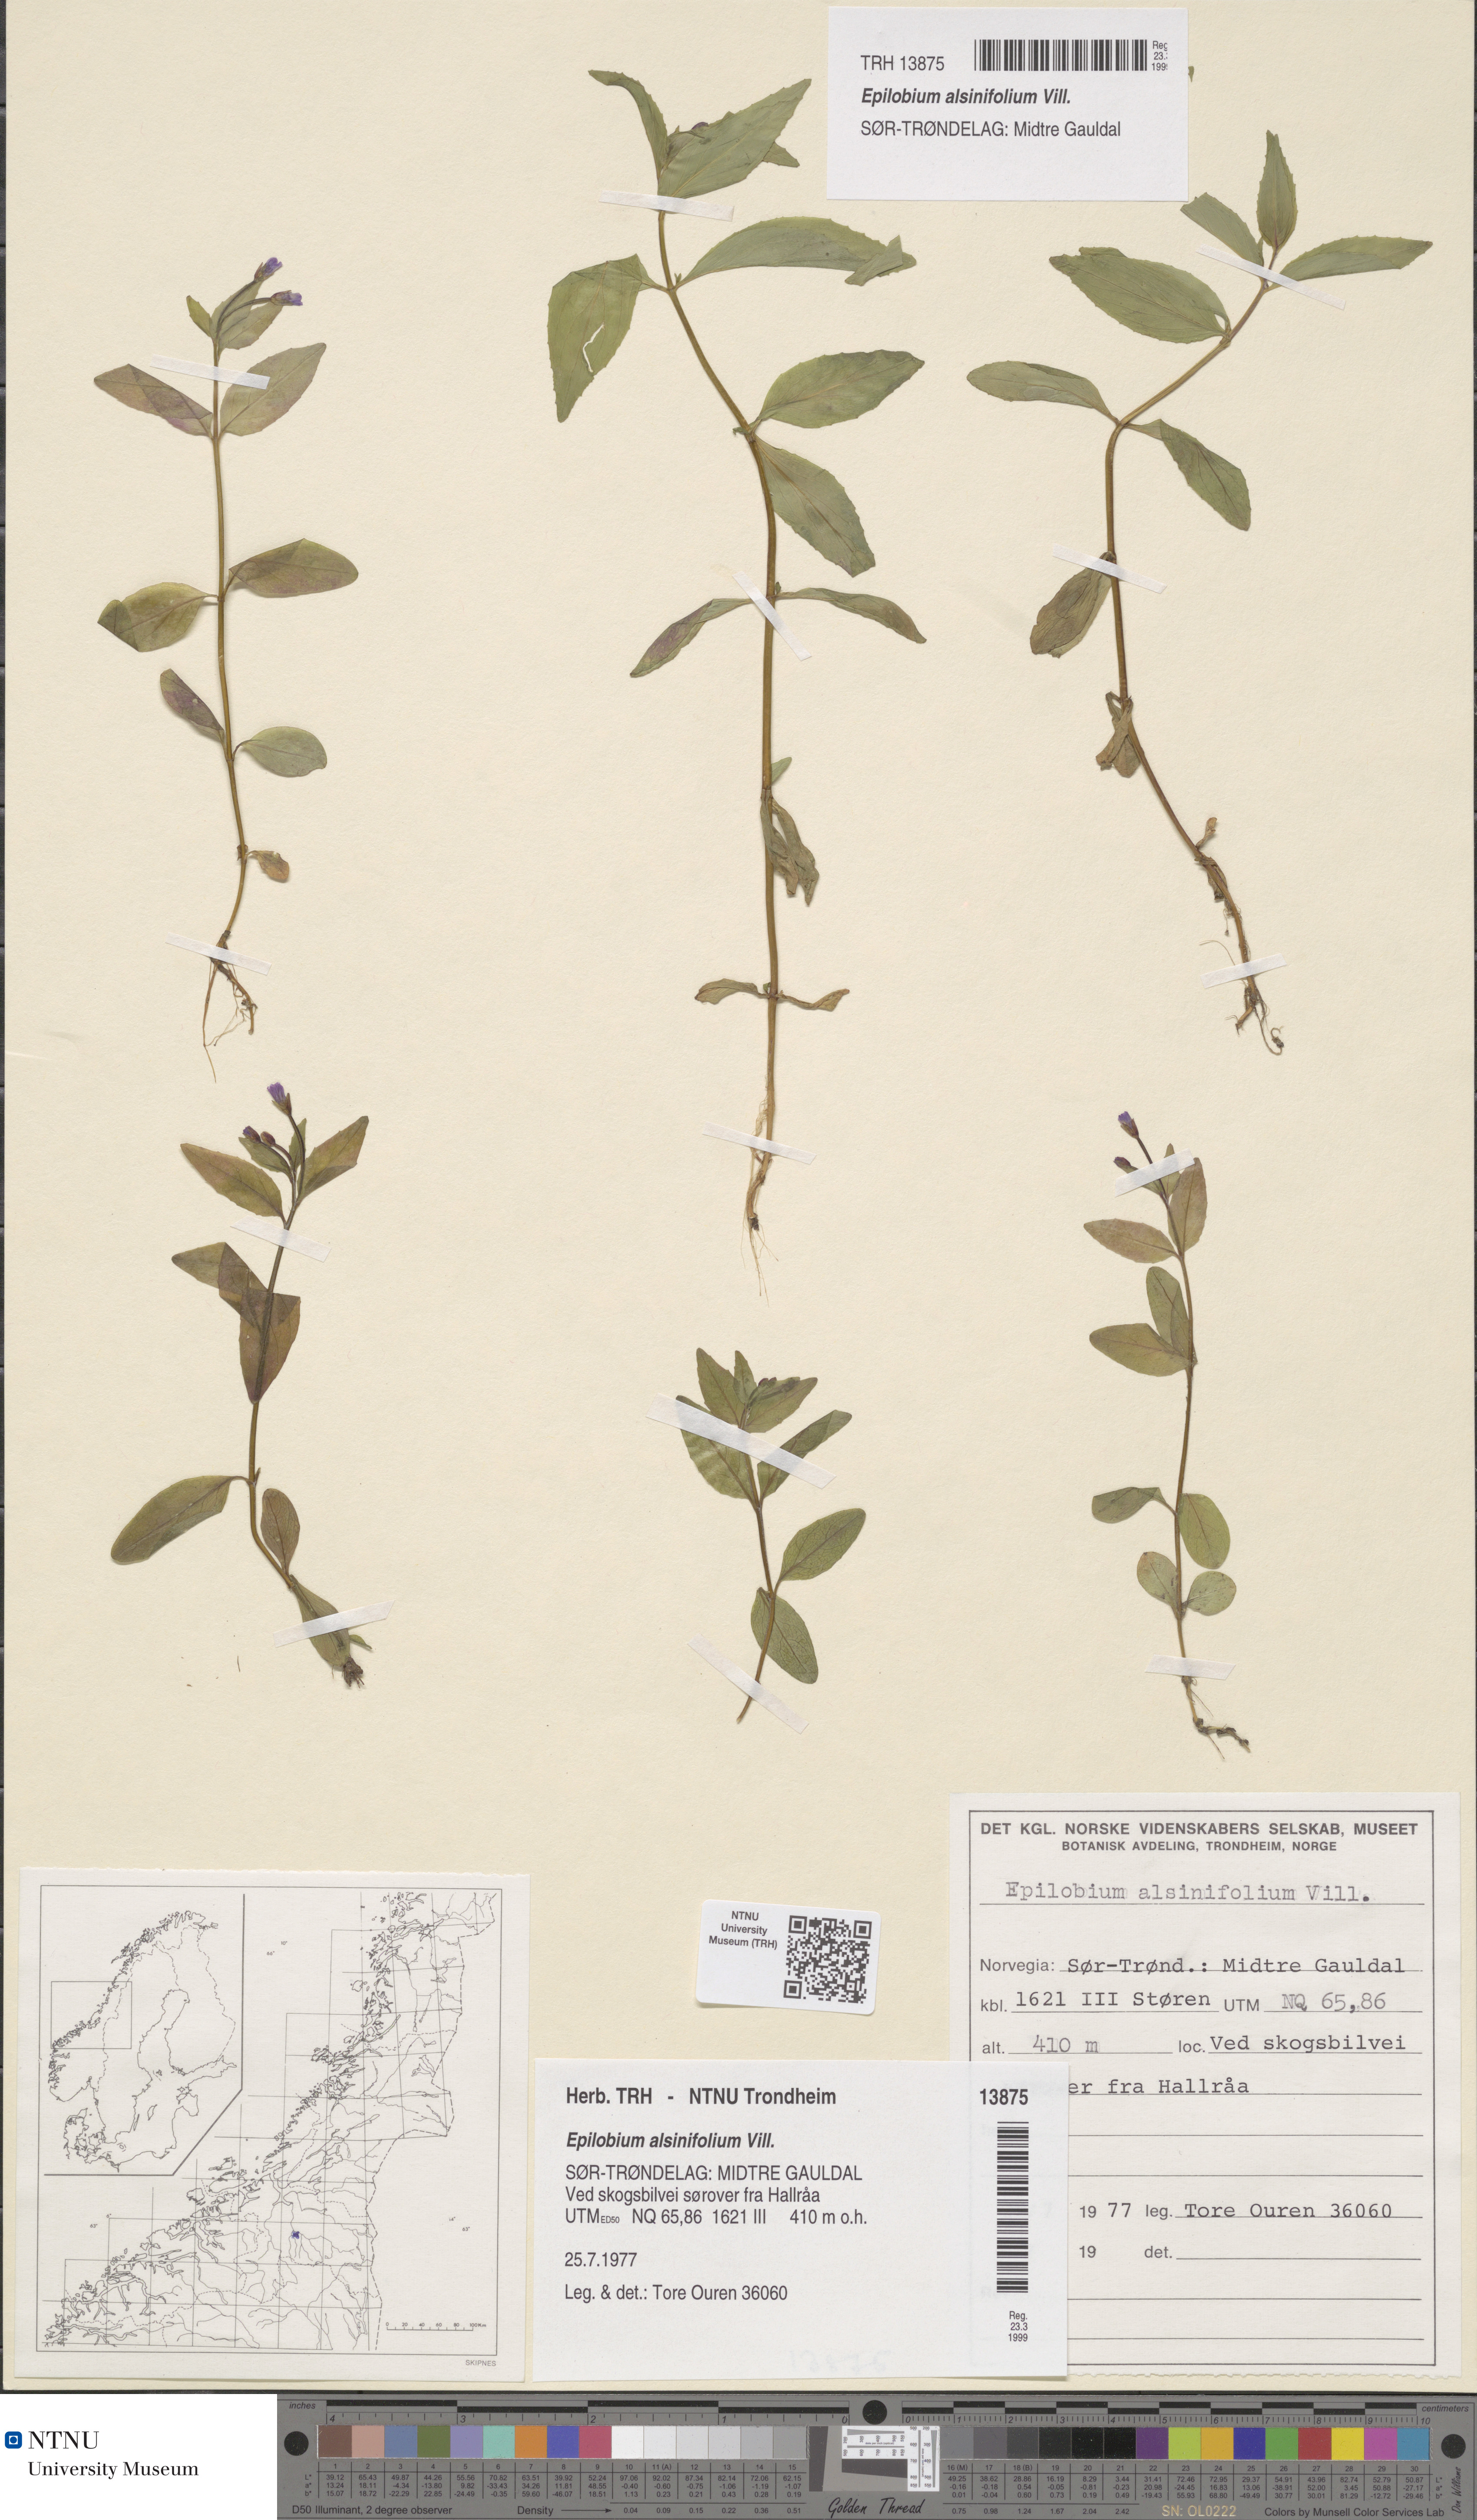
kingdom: Plantae
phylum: Tracheophyta
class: Magnoliopsida
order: Myrtales
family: Onagraceae
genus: Epilobium
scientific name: Epilobium alsinifolium
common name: Chickweed willowherb
